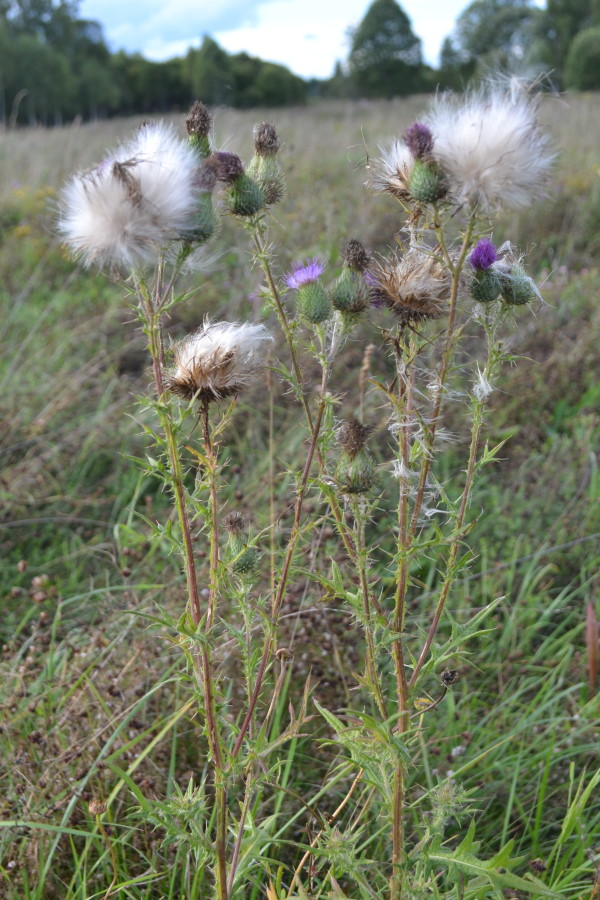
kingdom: Plantae
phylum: Tracheophyta
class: Magnoliopsida
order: Asterales
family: Asteraceae
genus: Cirsium
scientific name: Cirsium vulgare
